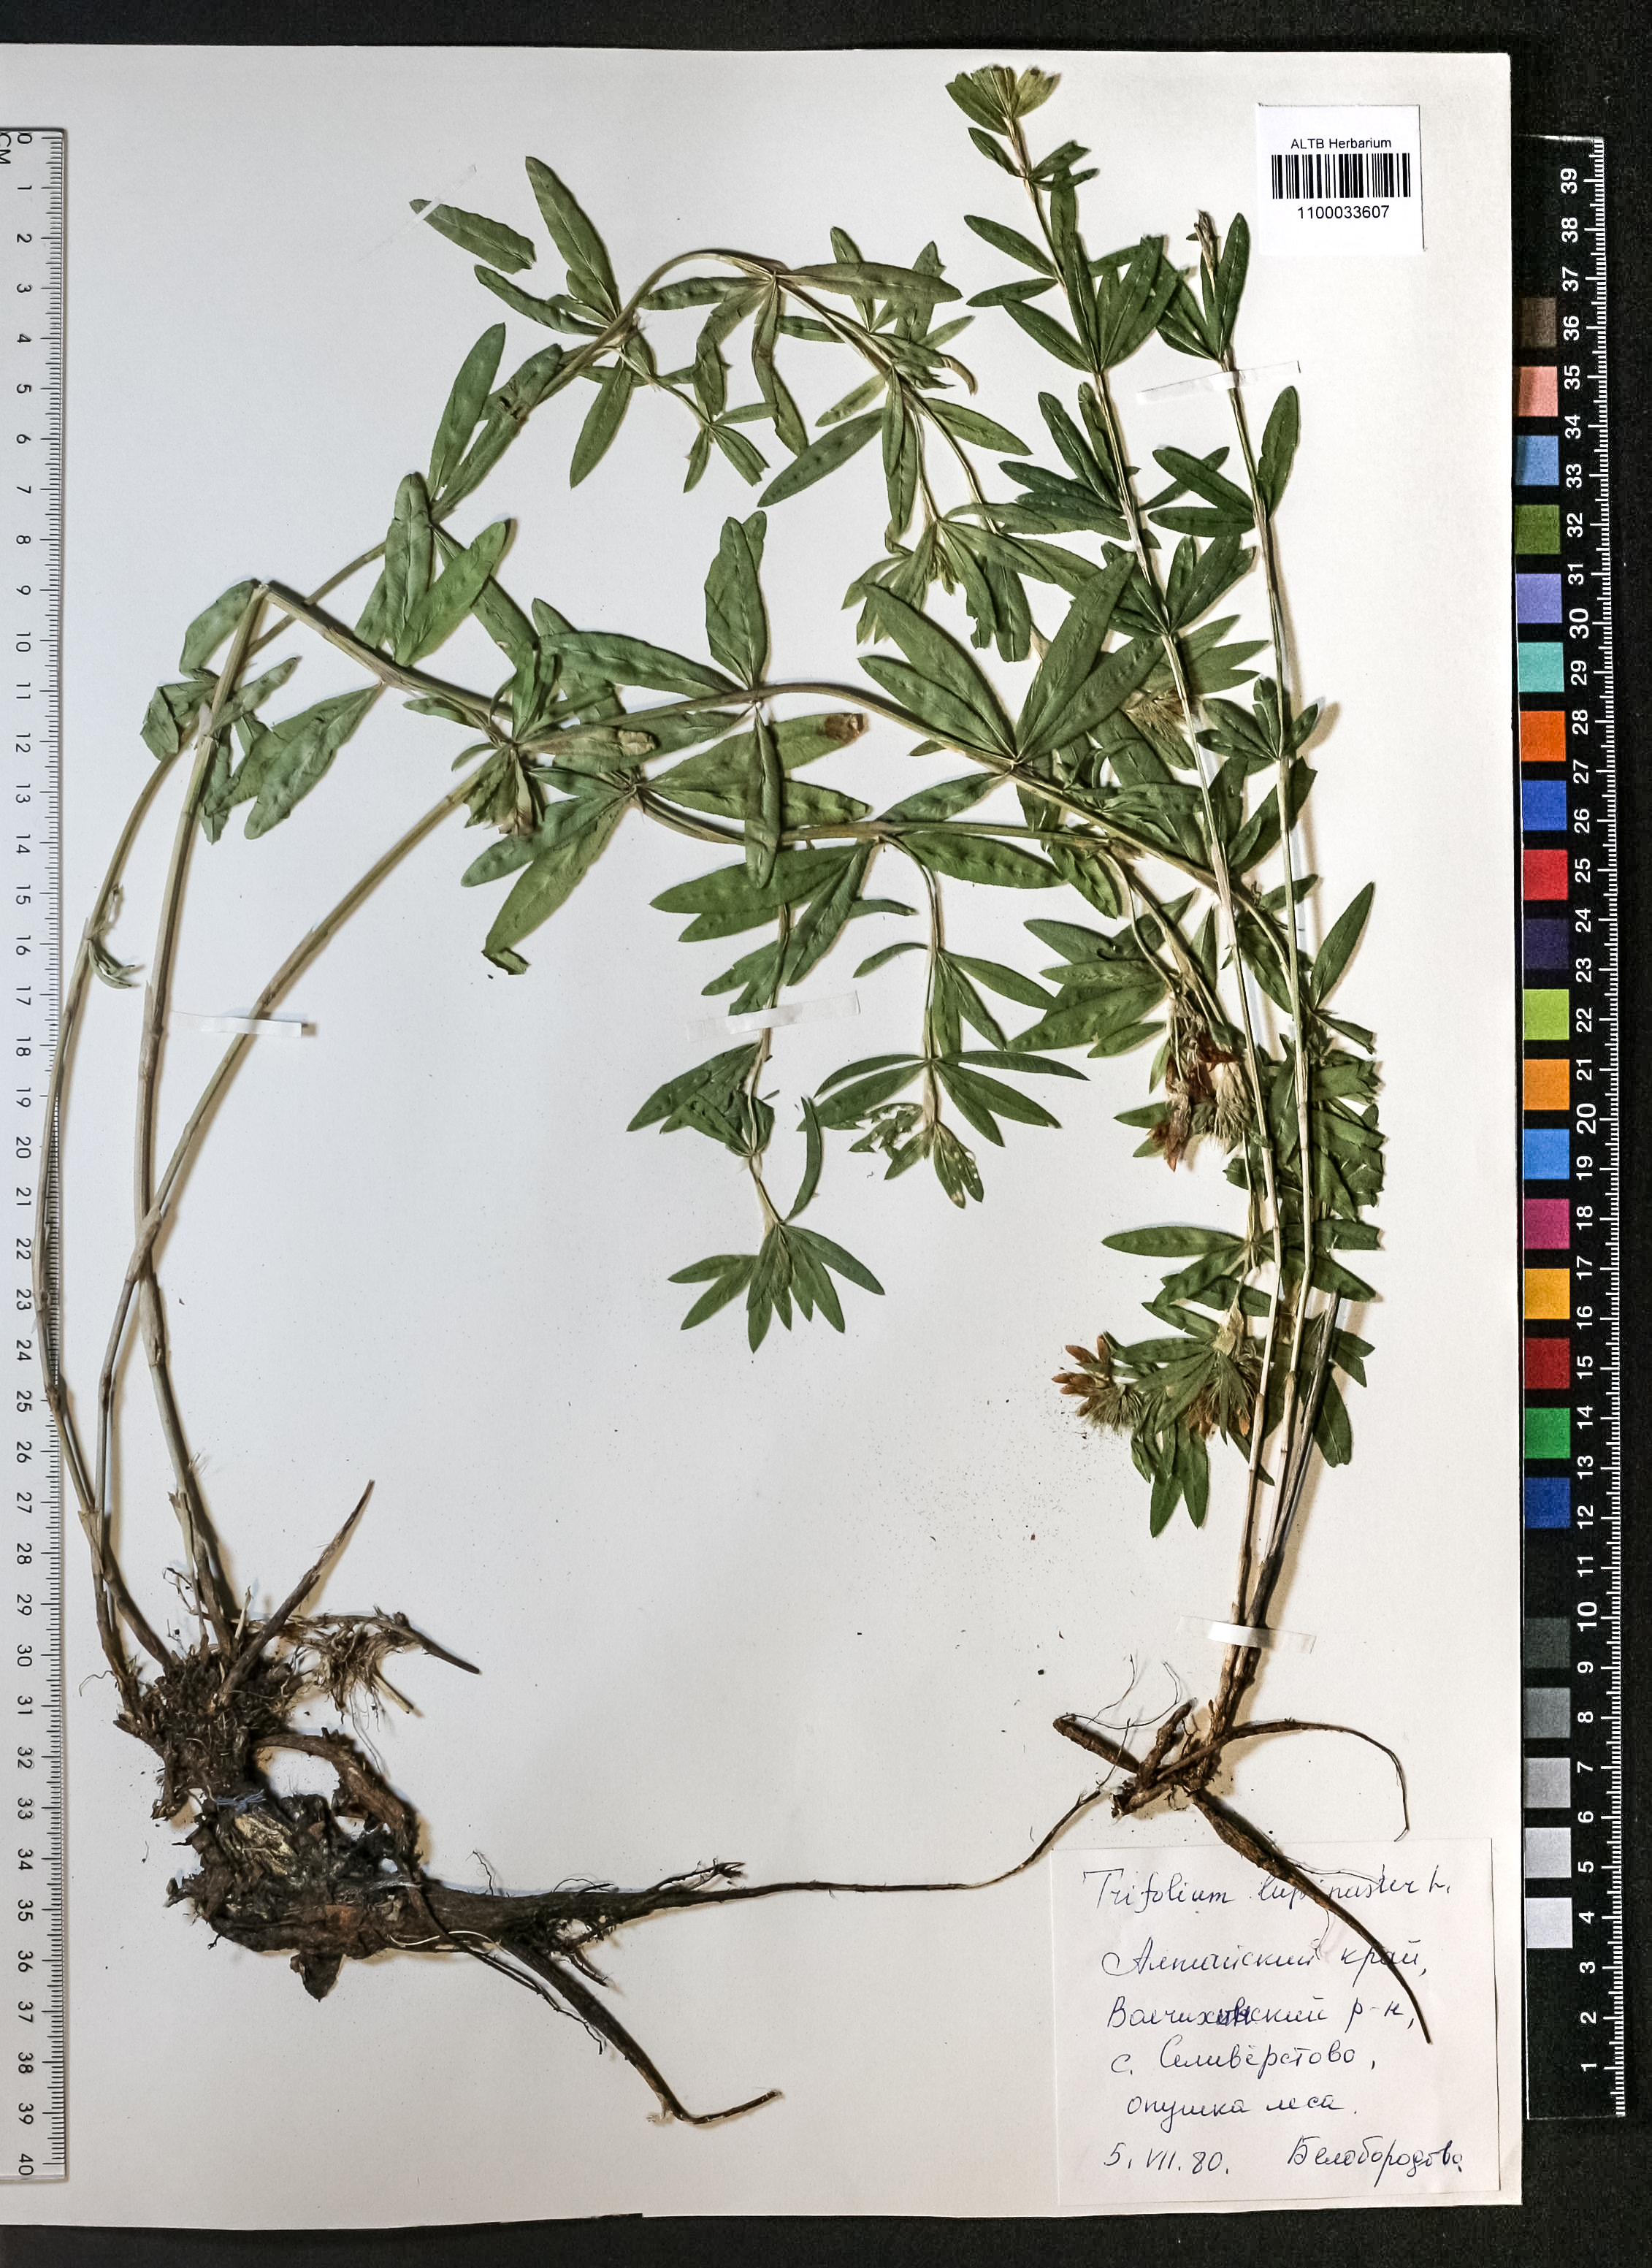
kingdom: Plantae
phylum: Tracheophyta
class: Magnoliopsida
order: Fabales
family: Fabaceae
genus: Trifolium
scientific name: Trifolium lupinaster
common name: Lupine clover
